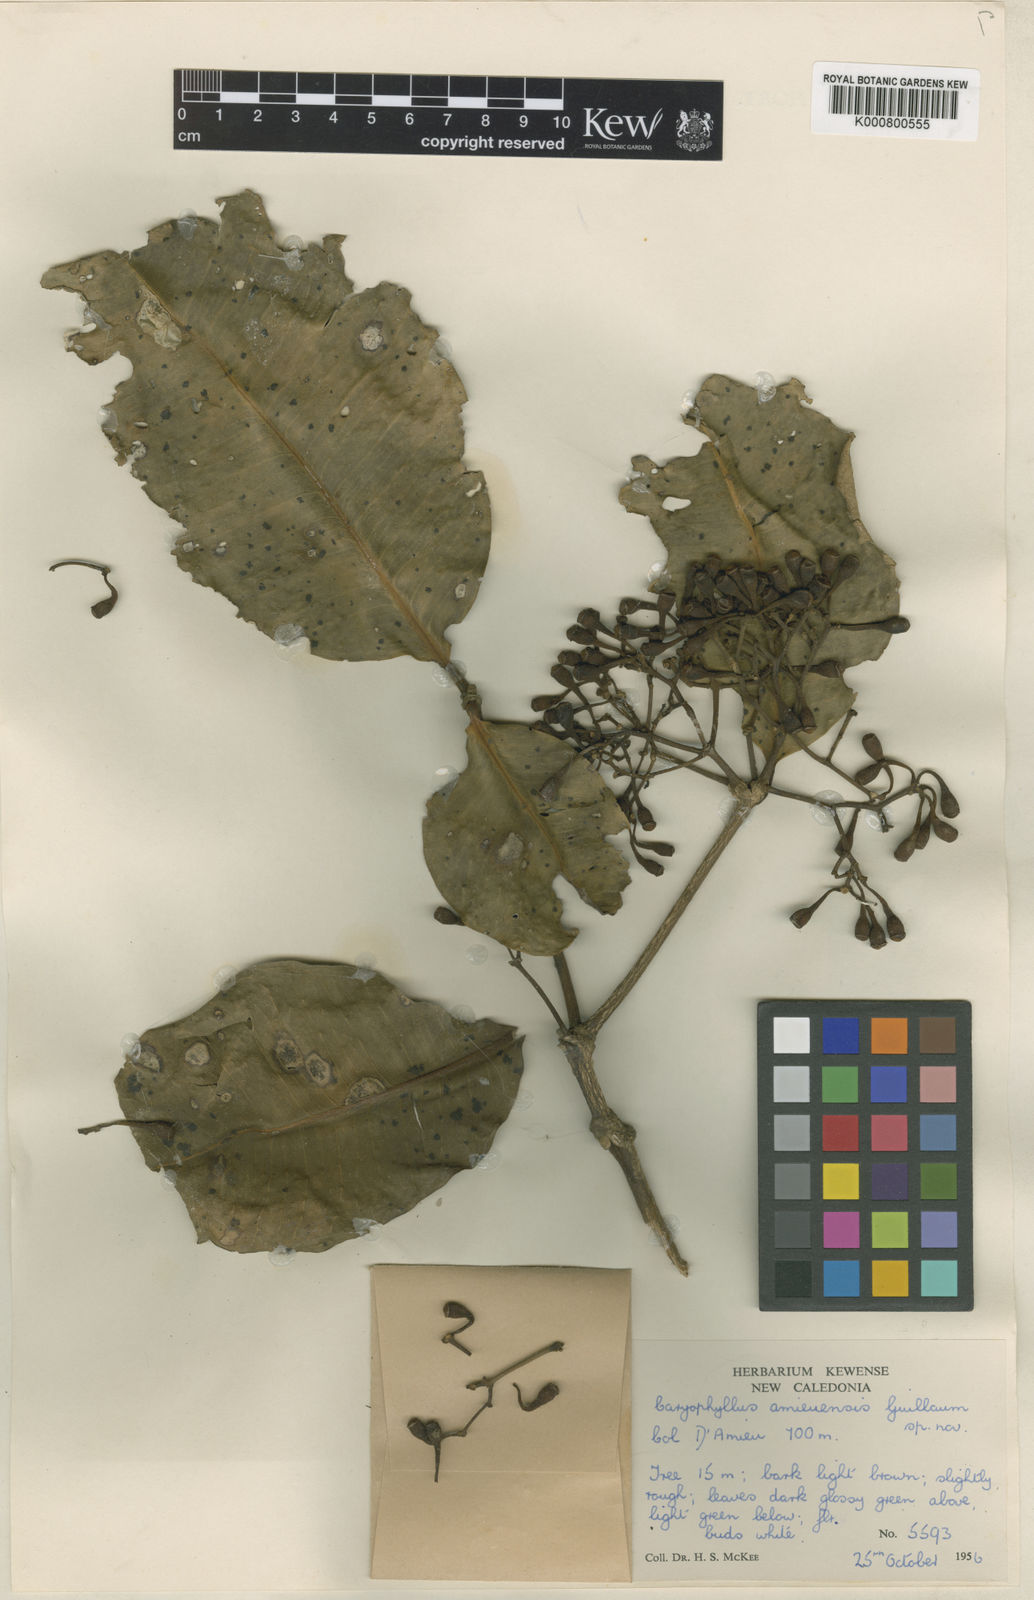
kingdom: Plantae
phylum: Tracheophyta
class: Magnoliopsida
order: Myrtales
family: Myrtaceae
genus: Syzygium
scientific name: Syzygium amieuense
